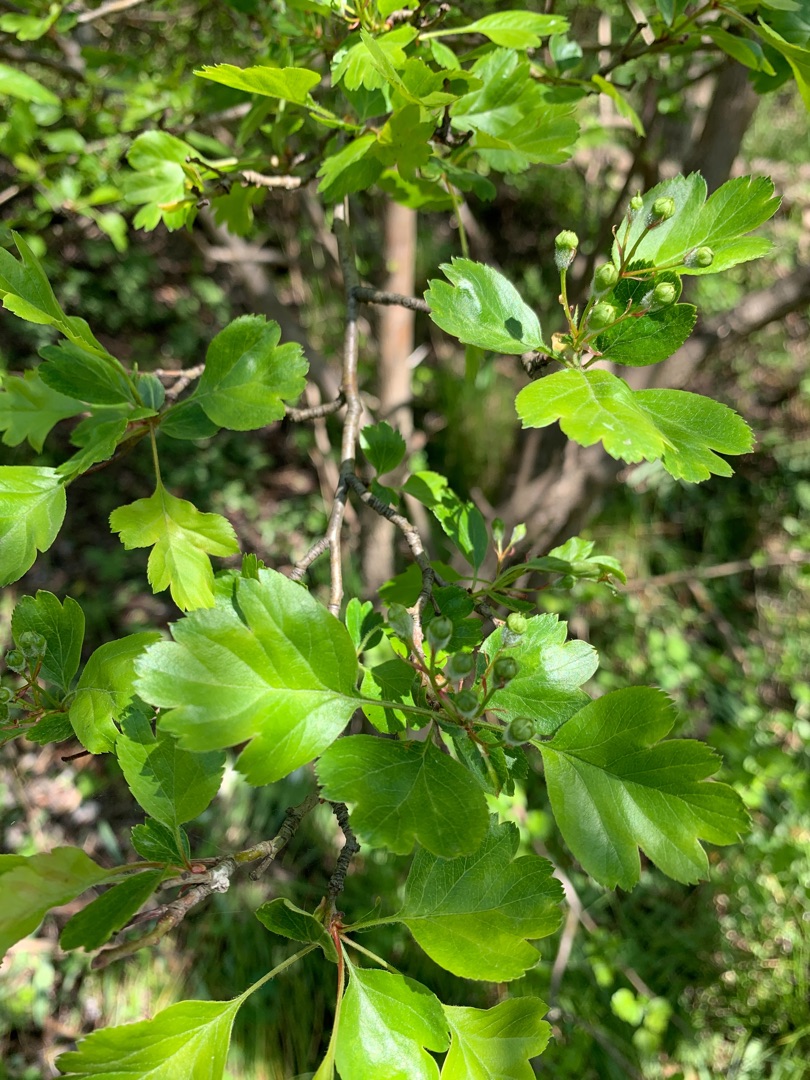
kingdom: Plantae
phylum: Tracheophyta
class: Magnoliopsida
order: Rosales
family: Rosaceae
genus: Crataegus
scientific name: Crataegus media
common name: Almindelig hvidtjørn × engriflet hvidtjørn
